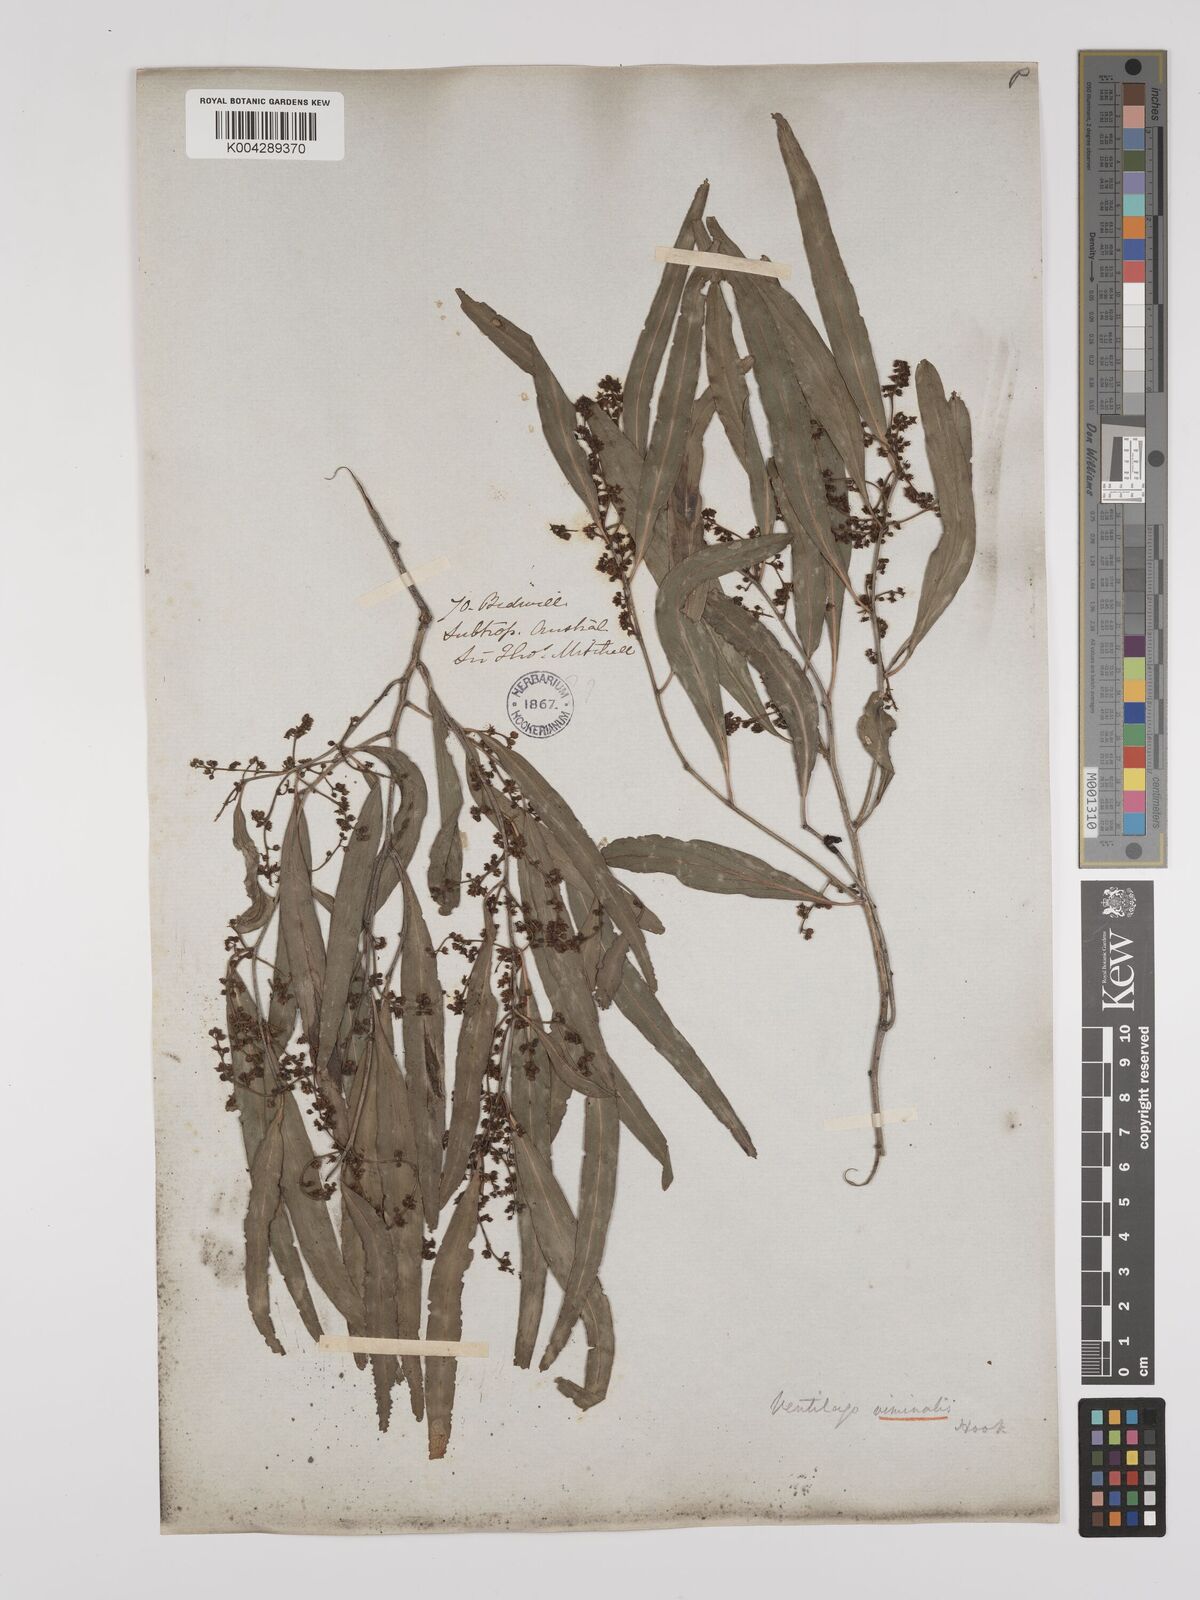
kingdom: Plantae
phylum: Tracheophyta
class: Magnoliopsida
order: Rosales
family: Rhamnaceae
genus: Ventilago
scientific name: Ventilago viminalis
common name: Medicine-bark
